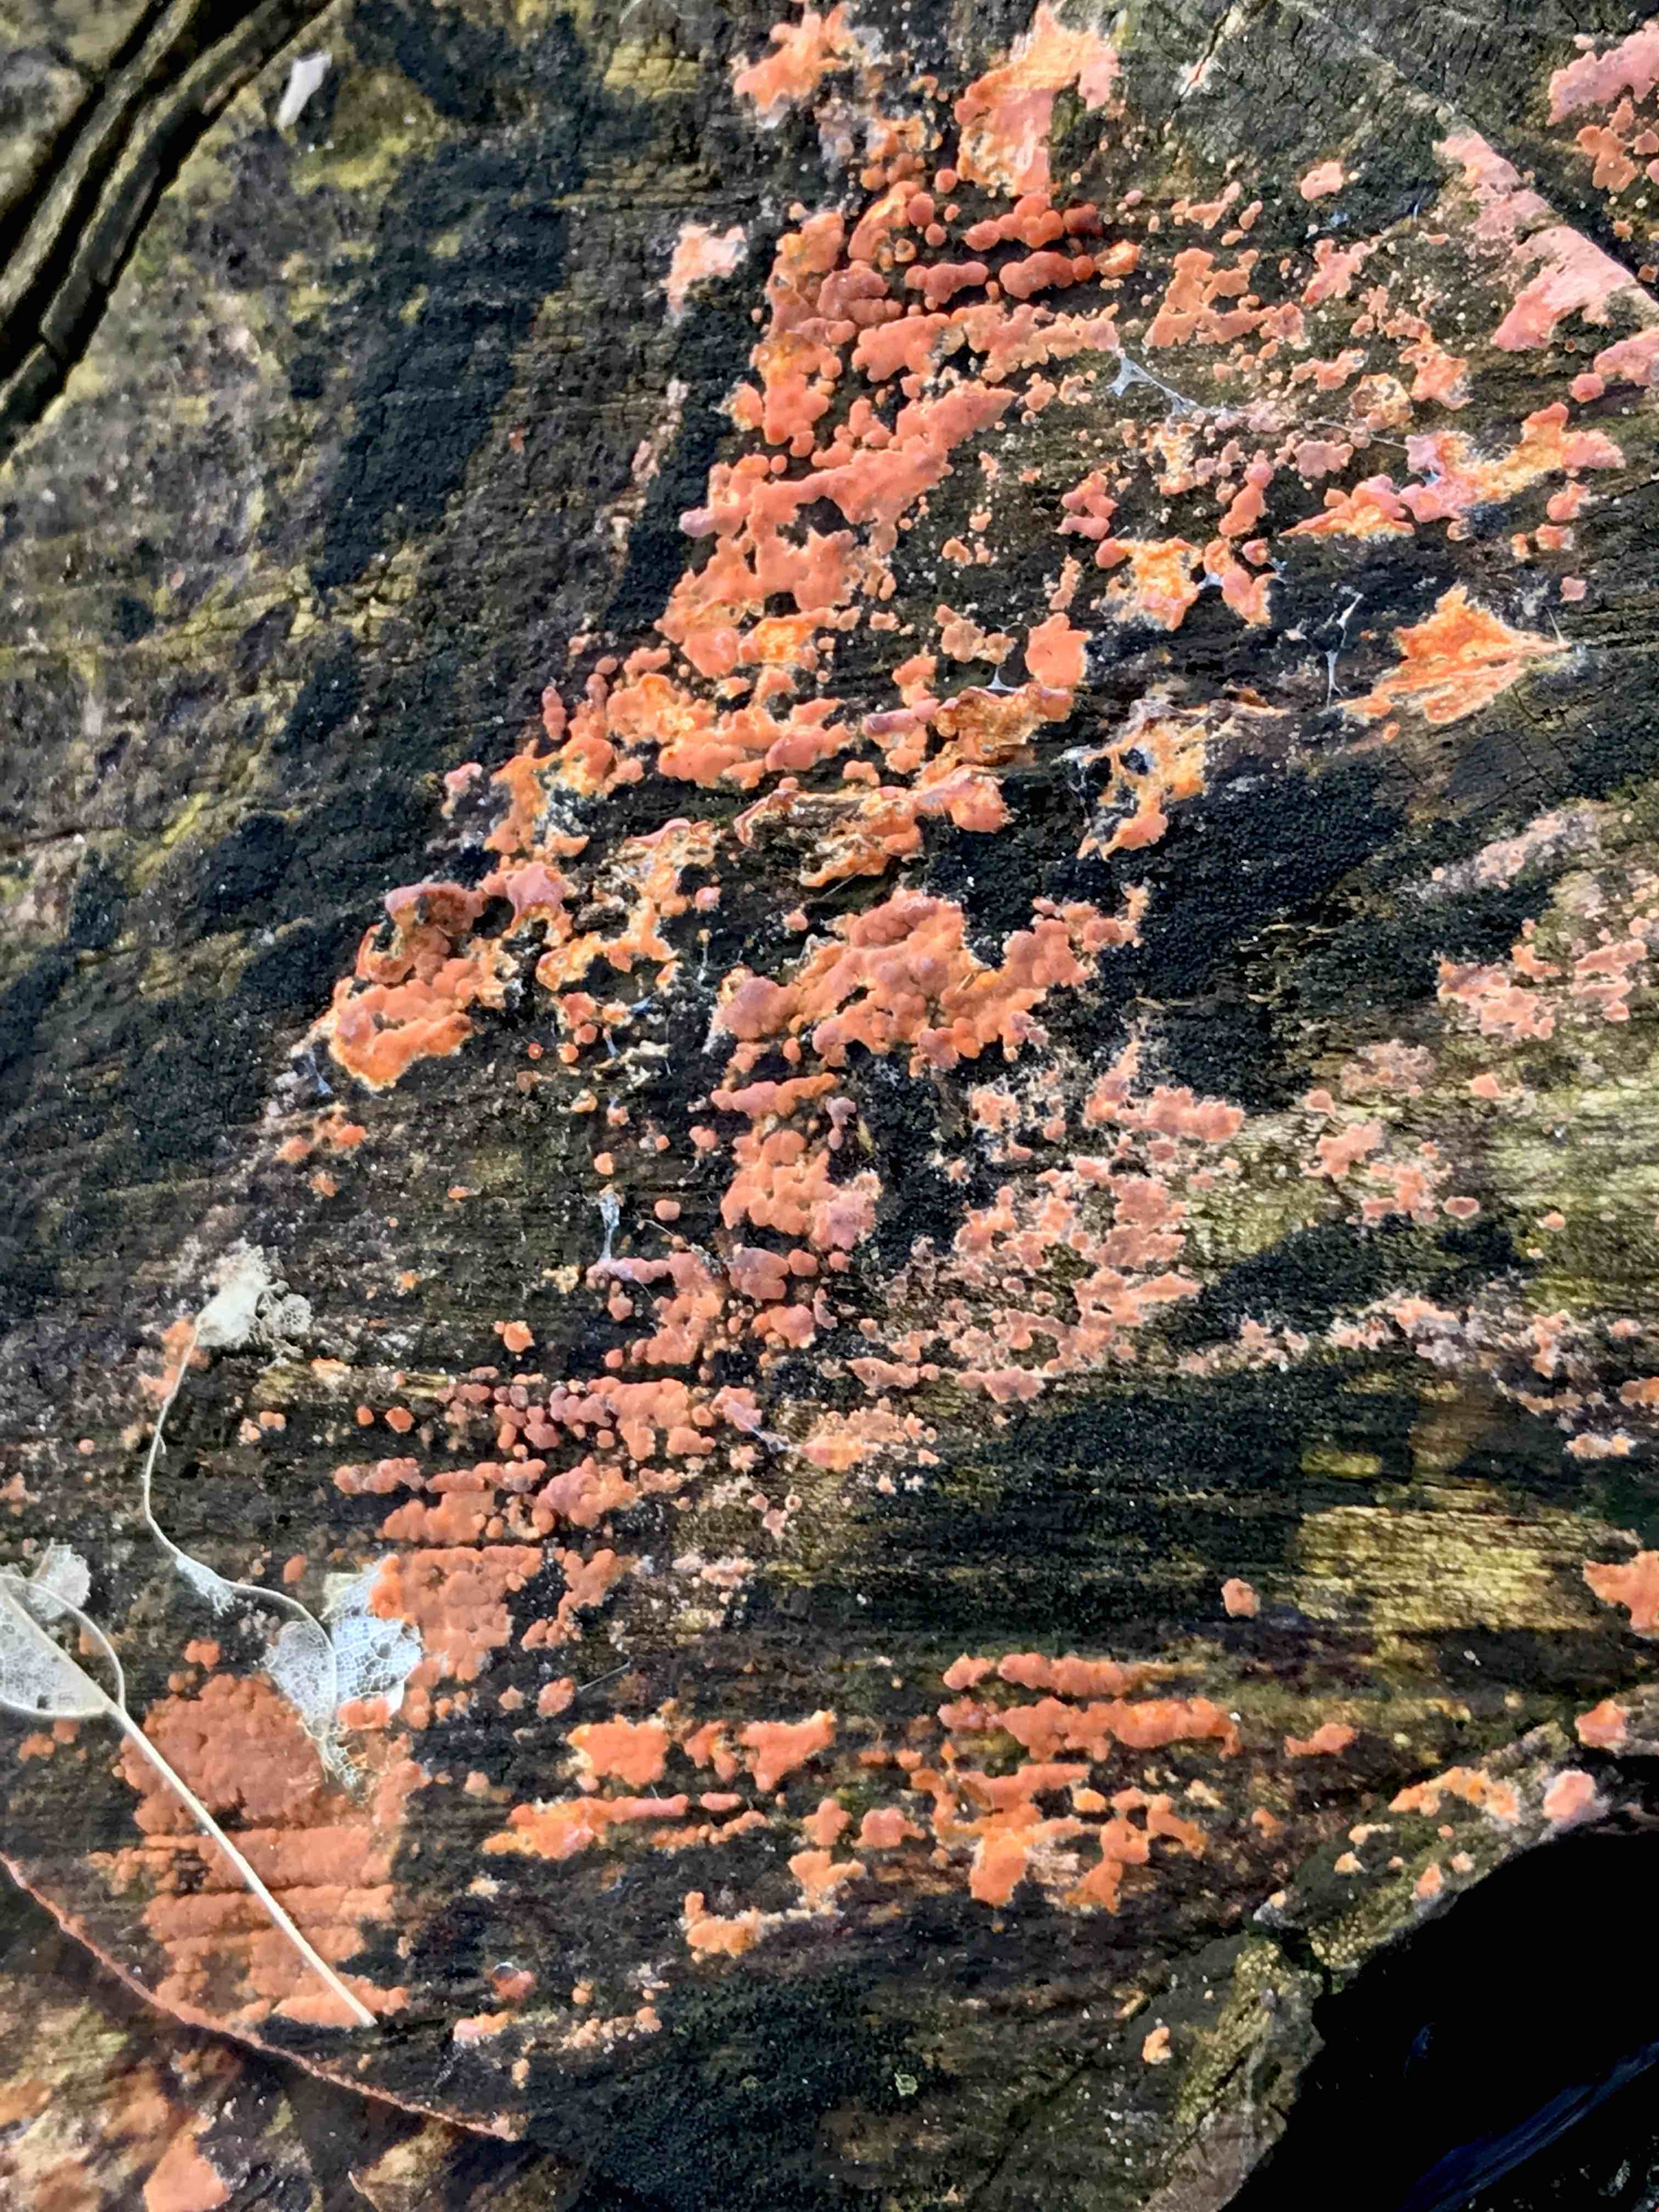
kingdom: Fungi
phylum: Basidiomycota
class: Agaricomycetes
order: Russulales
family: Peniophoraceae
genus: Peniophora
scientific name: Peniophora incarnata
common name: laksefarvet voksskind
